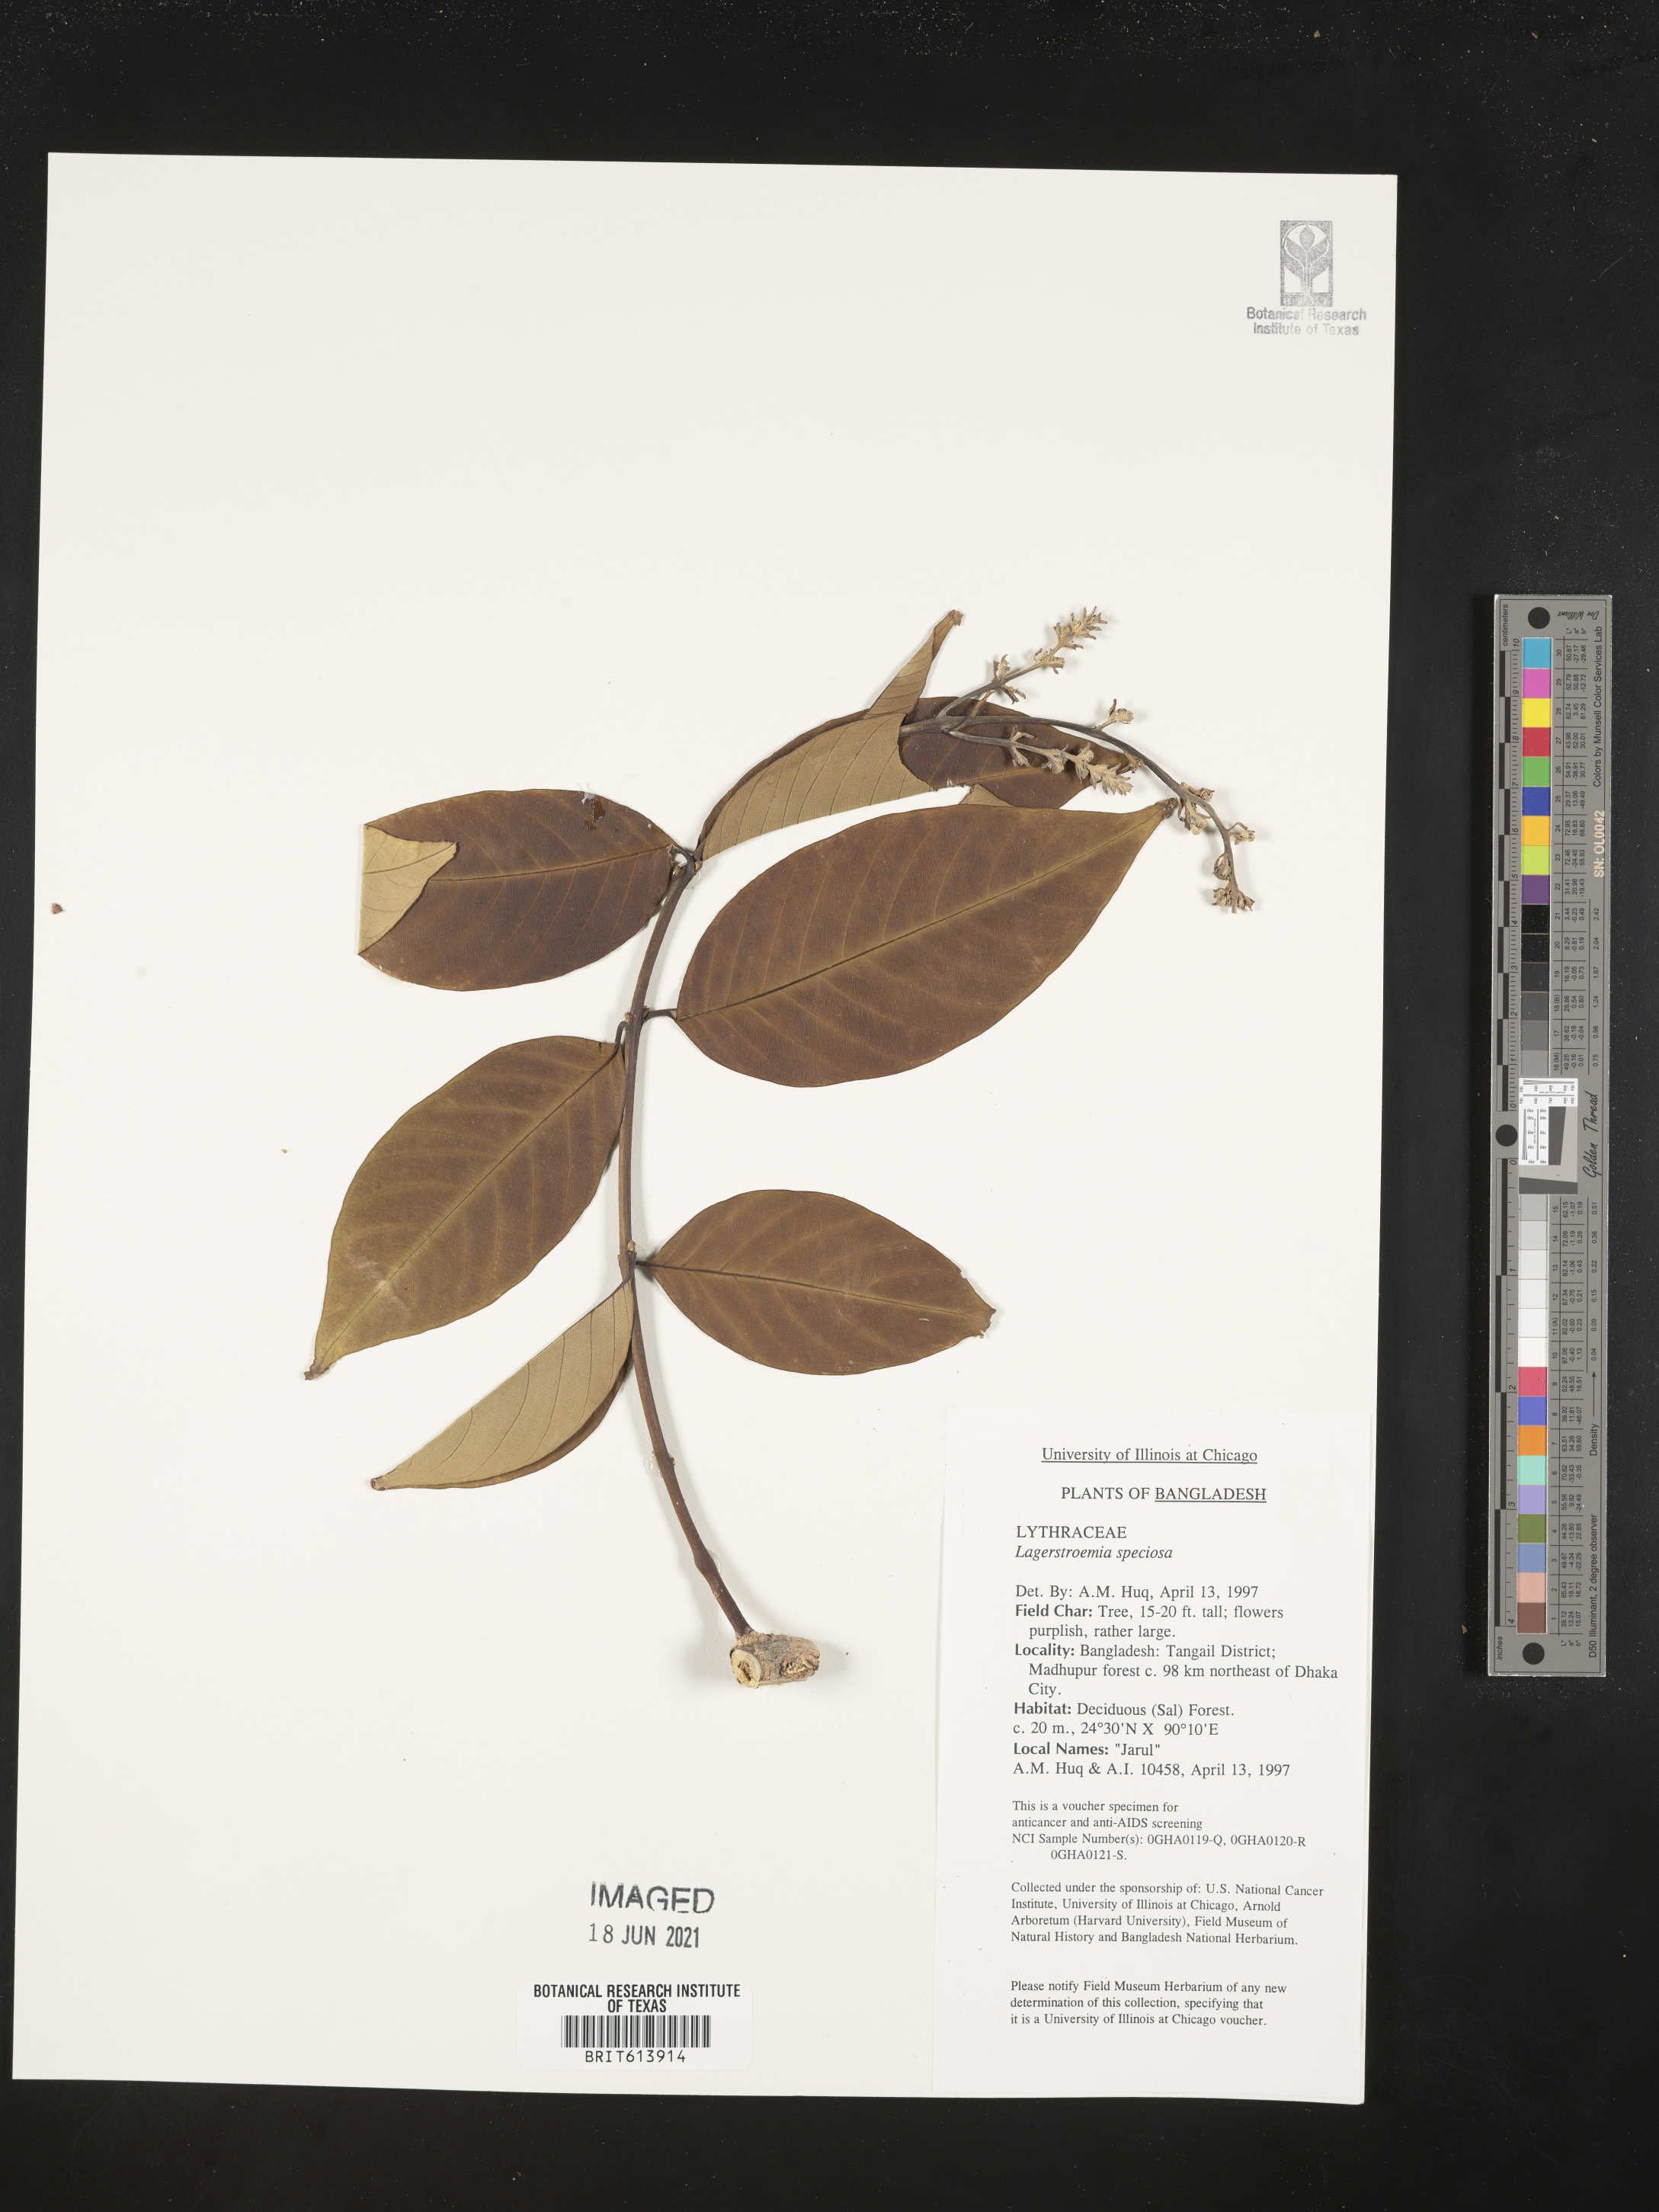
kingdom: Plantae
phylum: Tracheophyta
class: Magnoliopsida
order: Myrtales
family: Lythraceae
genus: Lagerstroemia
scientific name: Lagerstroemia speciosa
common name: Queen's crape-myrtle
